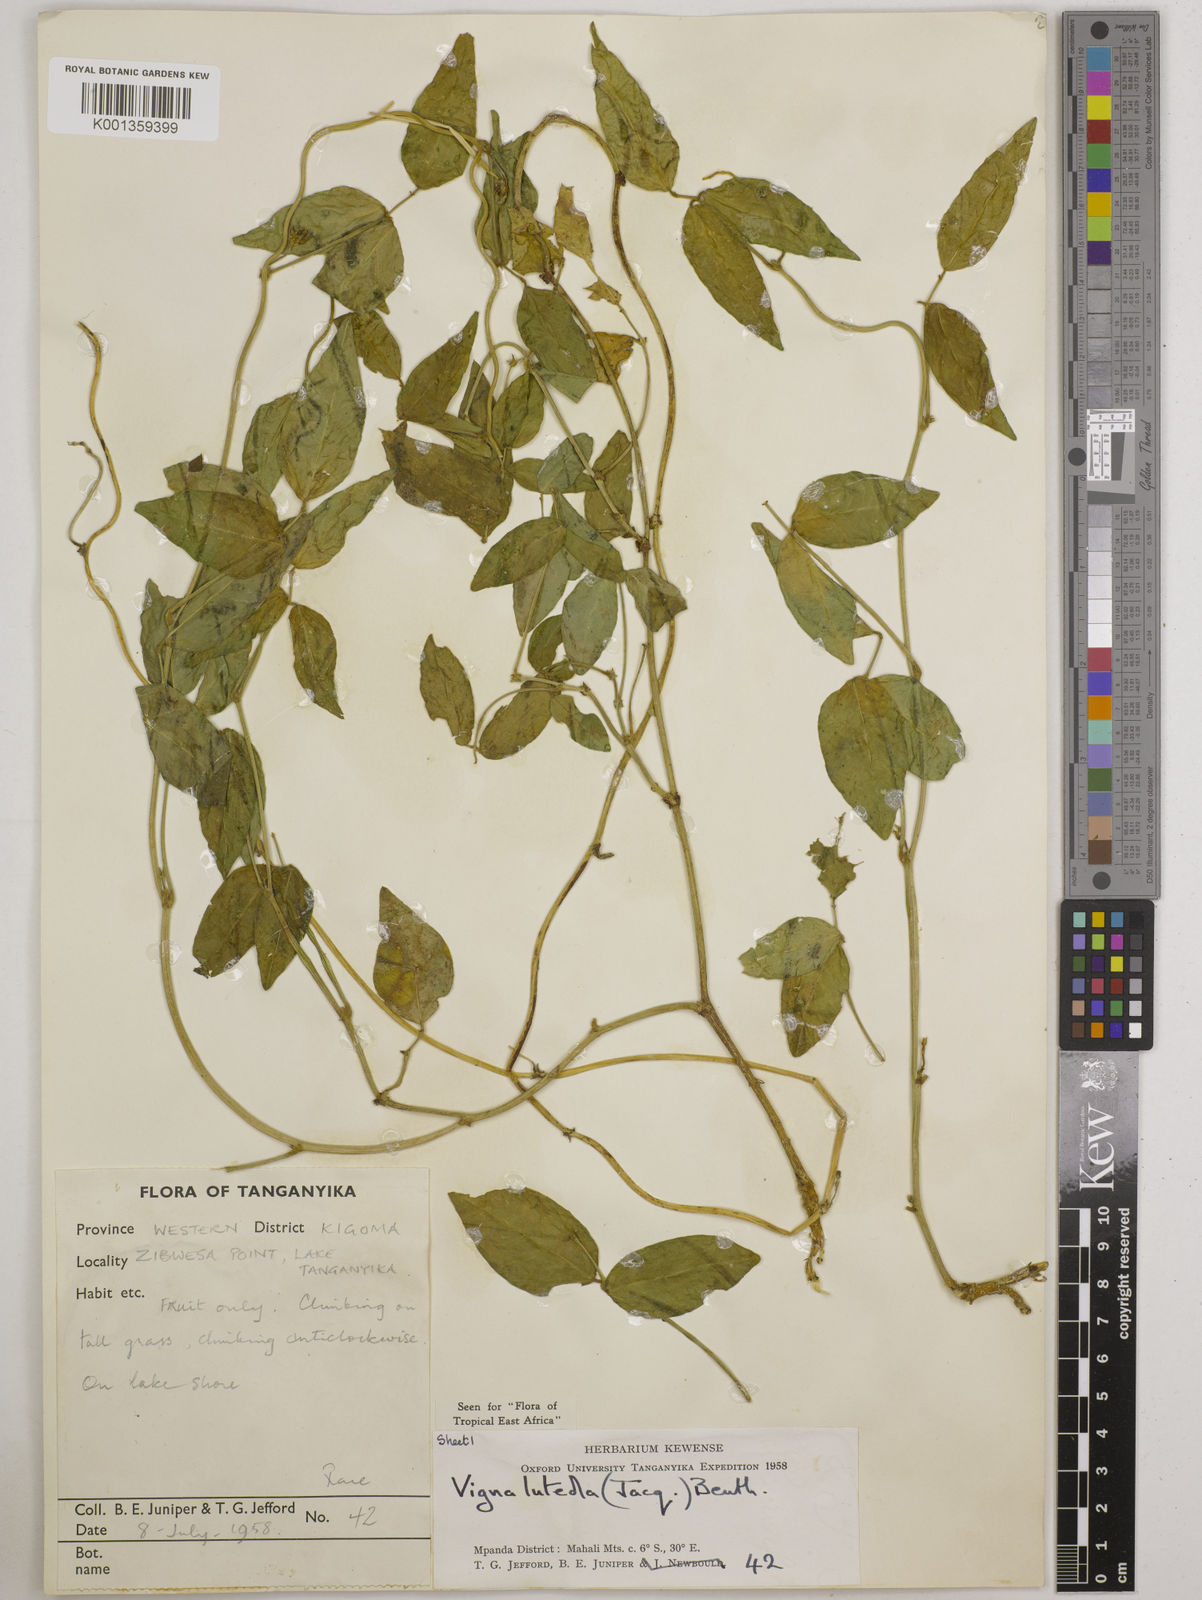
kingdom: Plantae
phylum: Tracheophyta
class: Magnoliopsida
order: Fabales
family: Fabaceae
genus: Vigna
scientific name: Vigna luteola
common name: Hairypod cowpea
